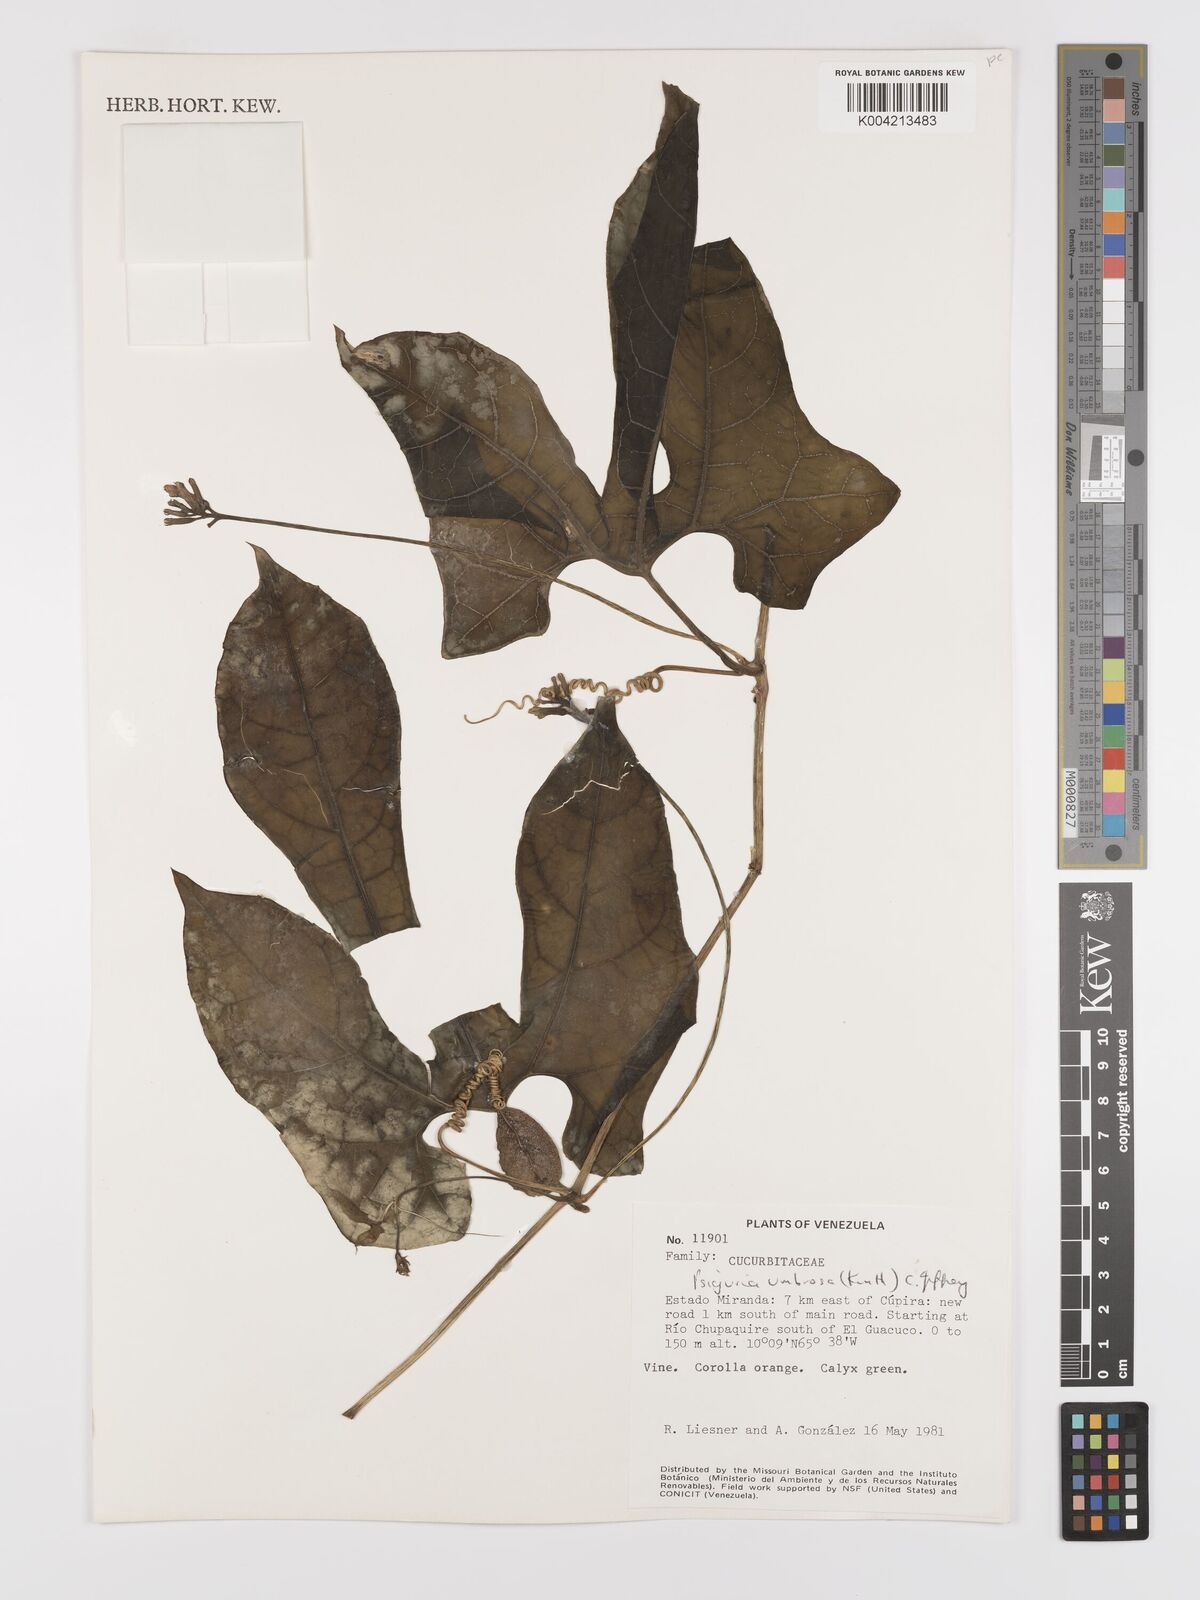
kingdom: Plantae
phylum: Tracheophyta
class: Magnoliopsida
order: Cucurbitales
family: Cucurbitaceae
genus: Psiguria
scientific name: Psiguria umbrosa
